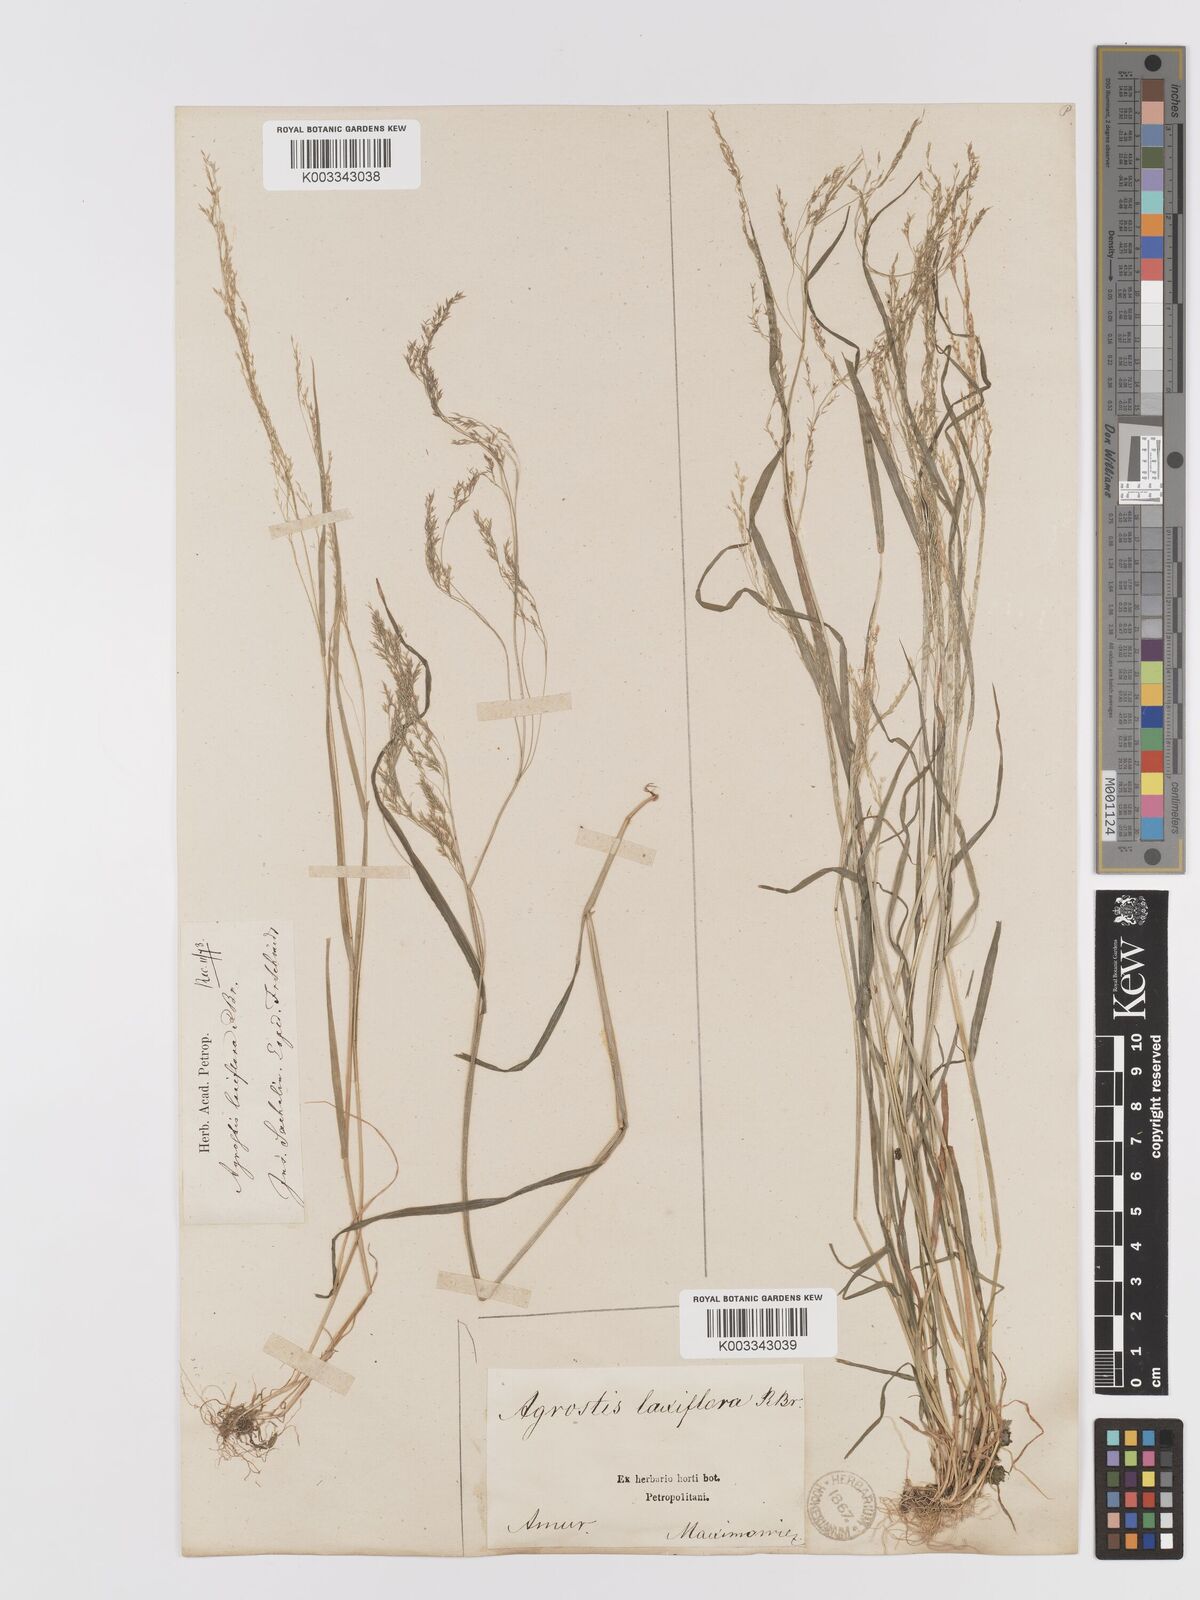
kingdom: Plantae
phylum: Tracheophyta
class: Liliopsida
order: Poales
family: Poaceae
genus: Agrostis
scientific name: Agrostis clavata
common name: Clavate bent
